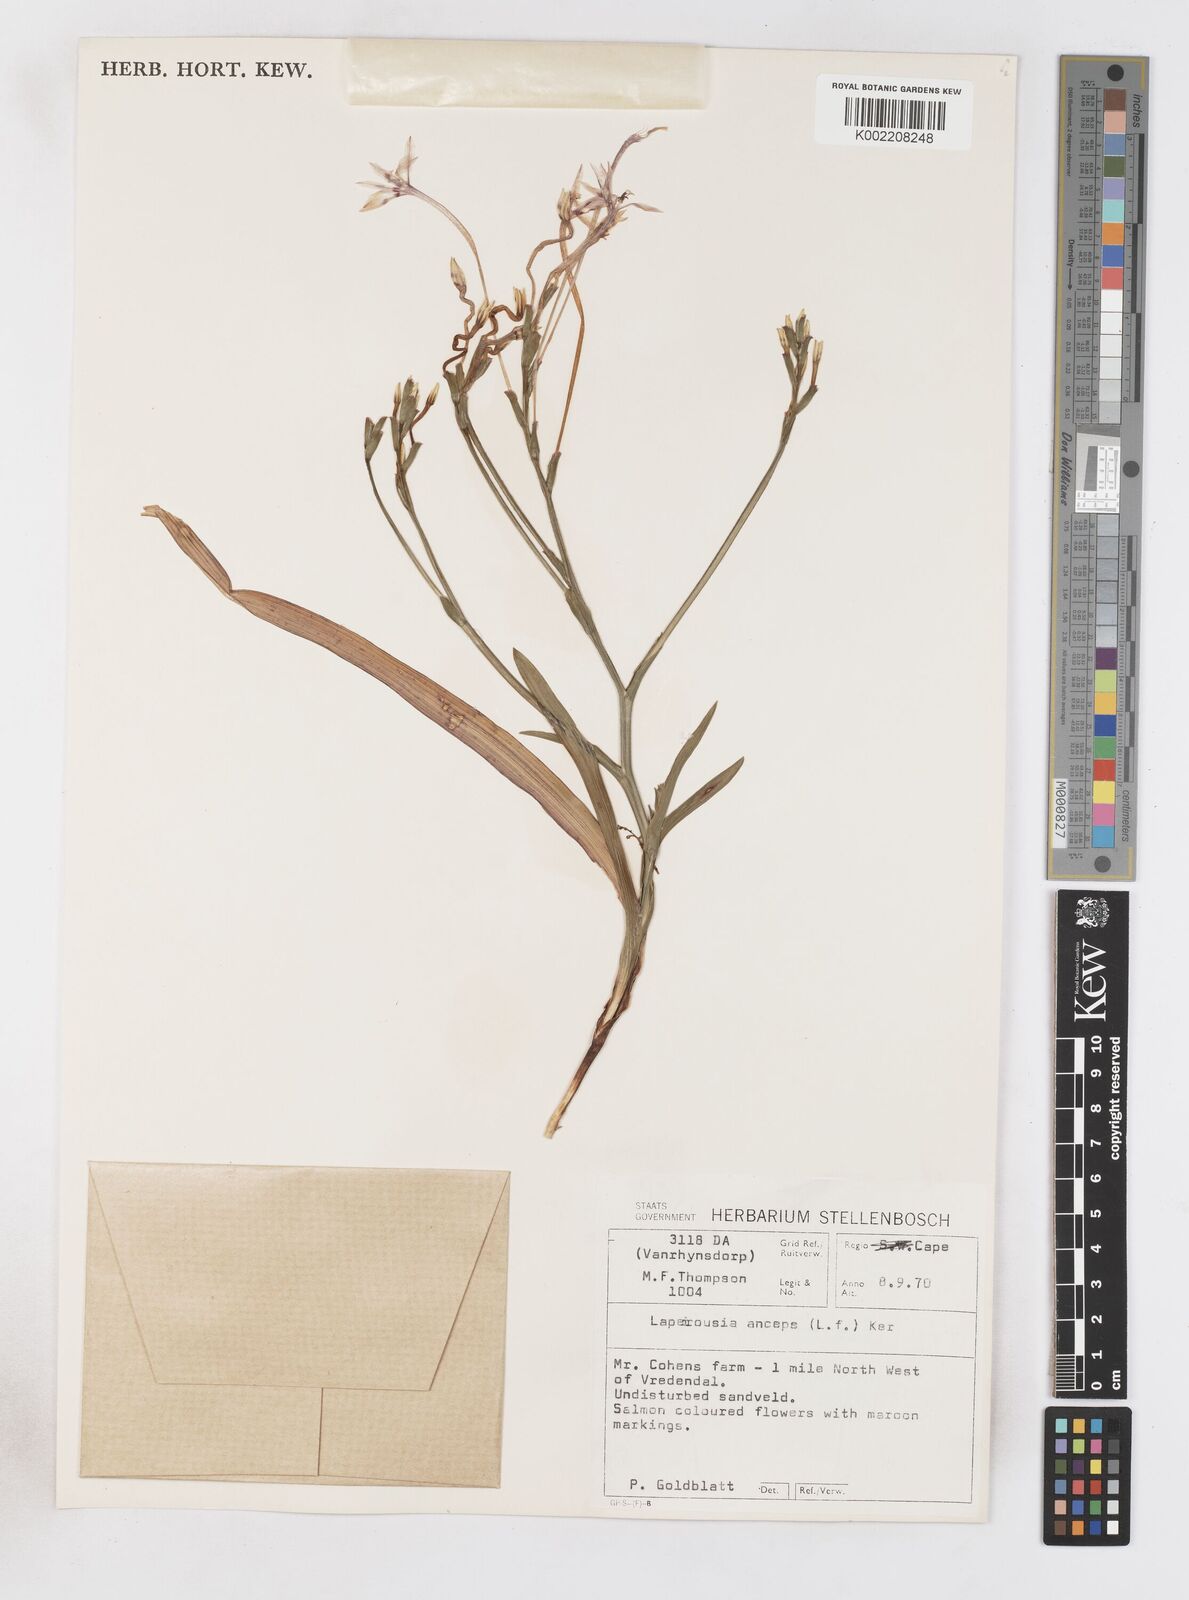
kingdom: Plantae
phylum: Tracheophyta
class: Liliopsida
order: Asparagales
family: Iridaceae
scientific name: Iridaceae
